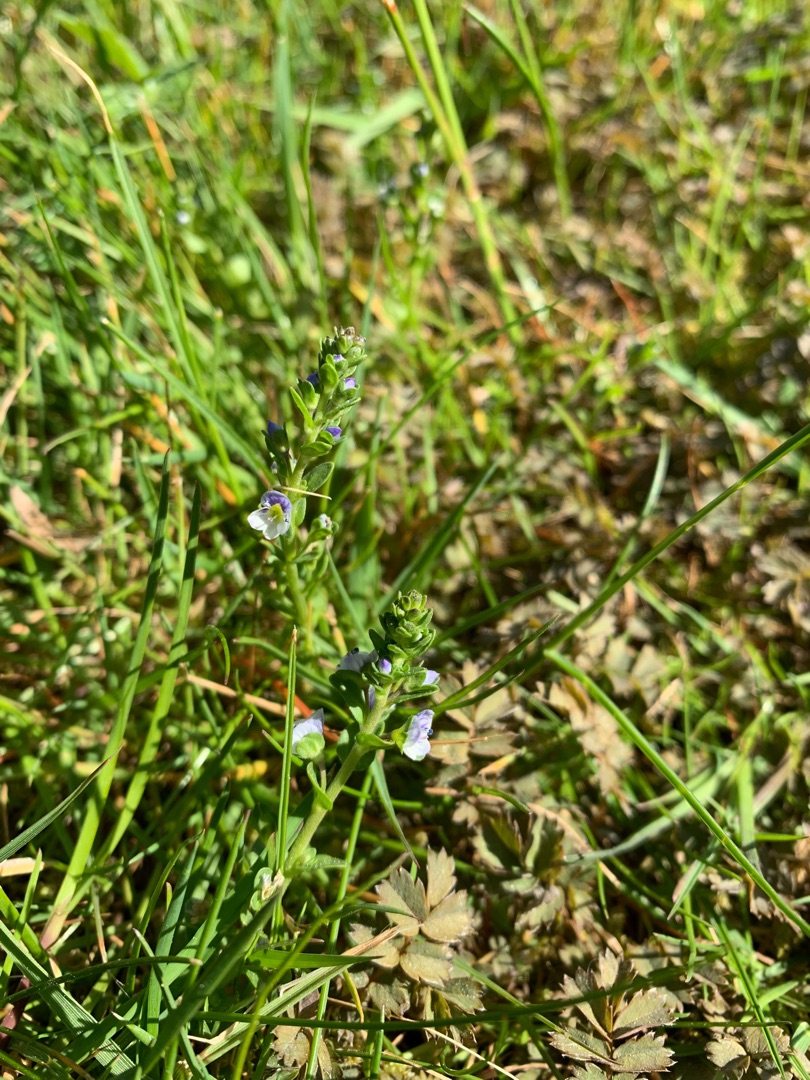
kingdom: Plantae
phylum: Tracheophyta
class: Magnoliopsida
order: Lamiales
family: Plantaginaceae
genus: Veronica
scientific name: Veronica serpyllifolia
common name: Glat ærenpris
